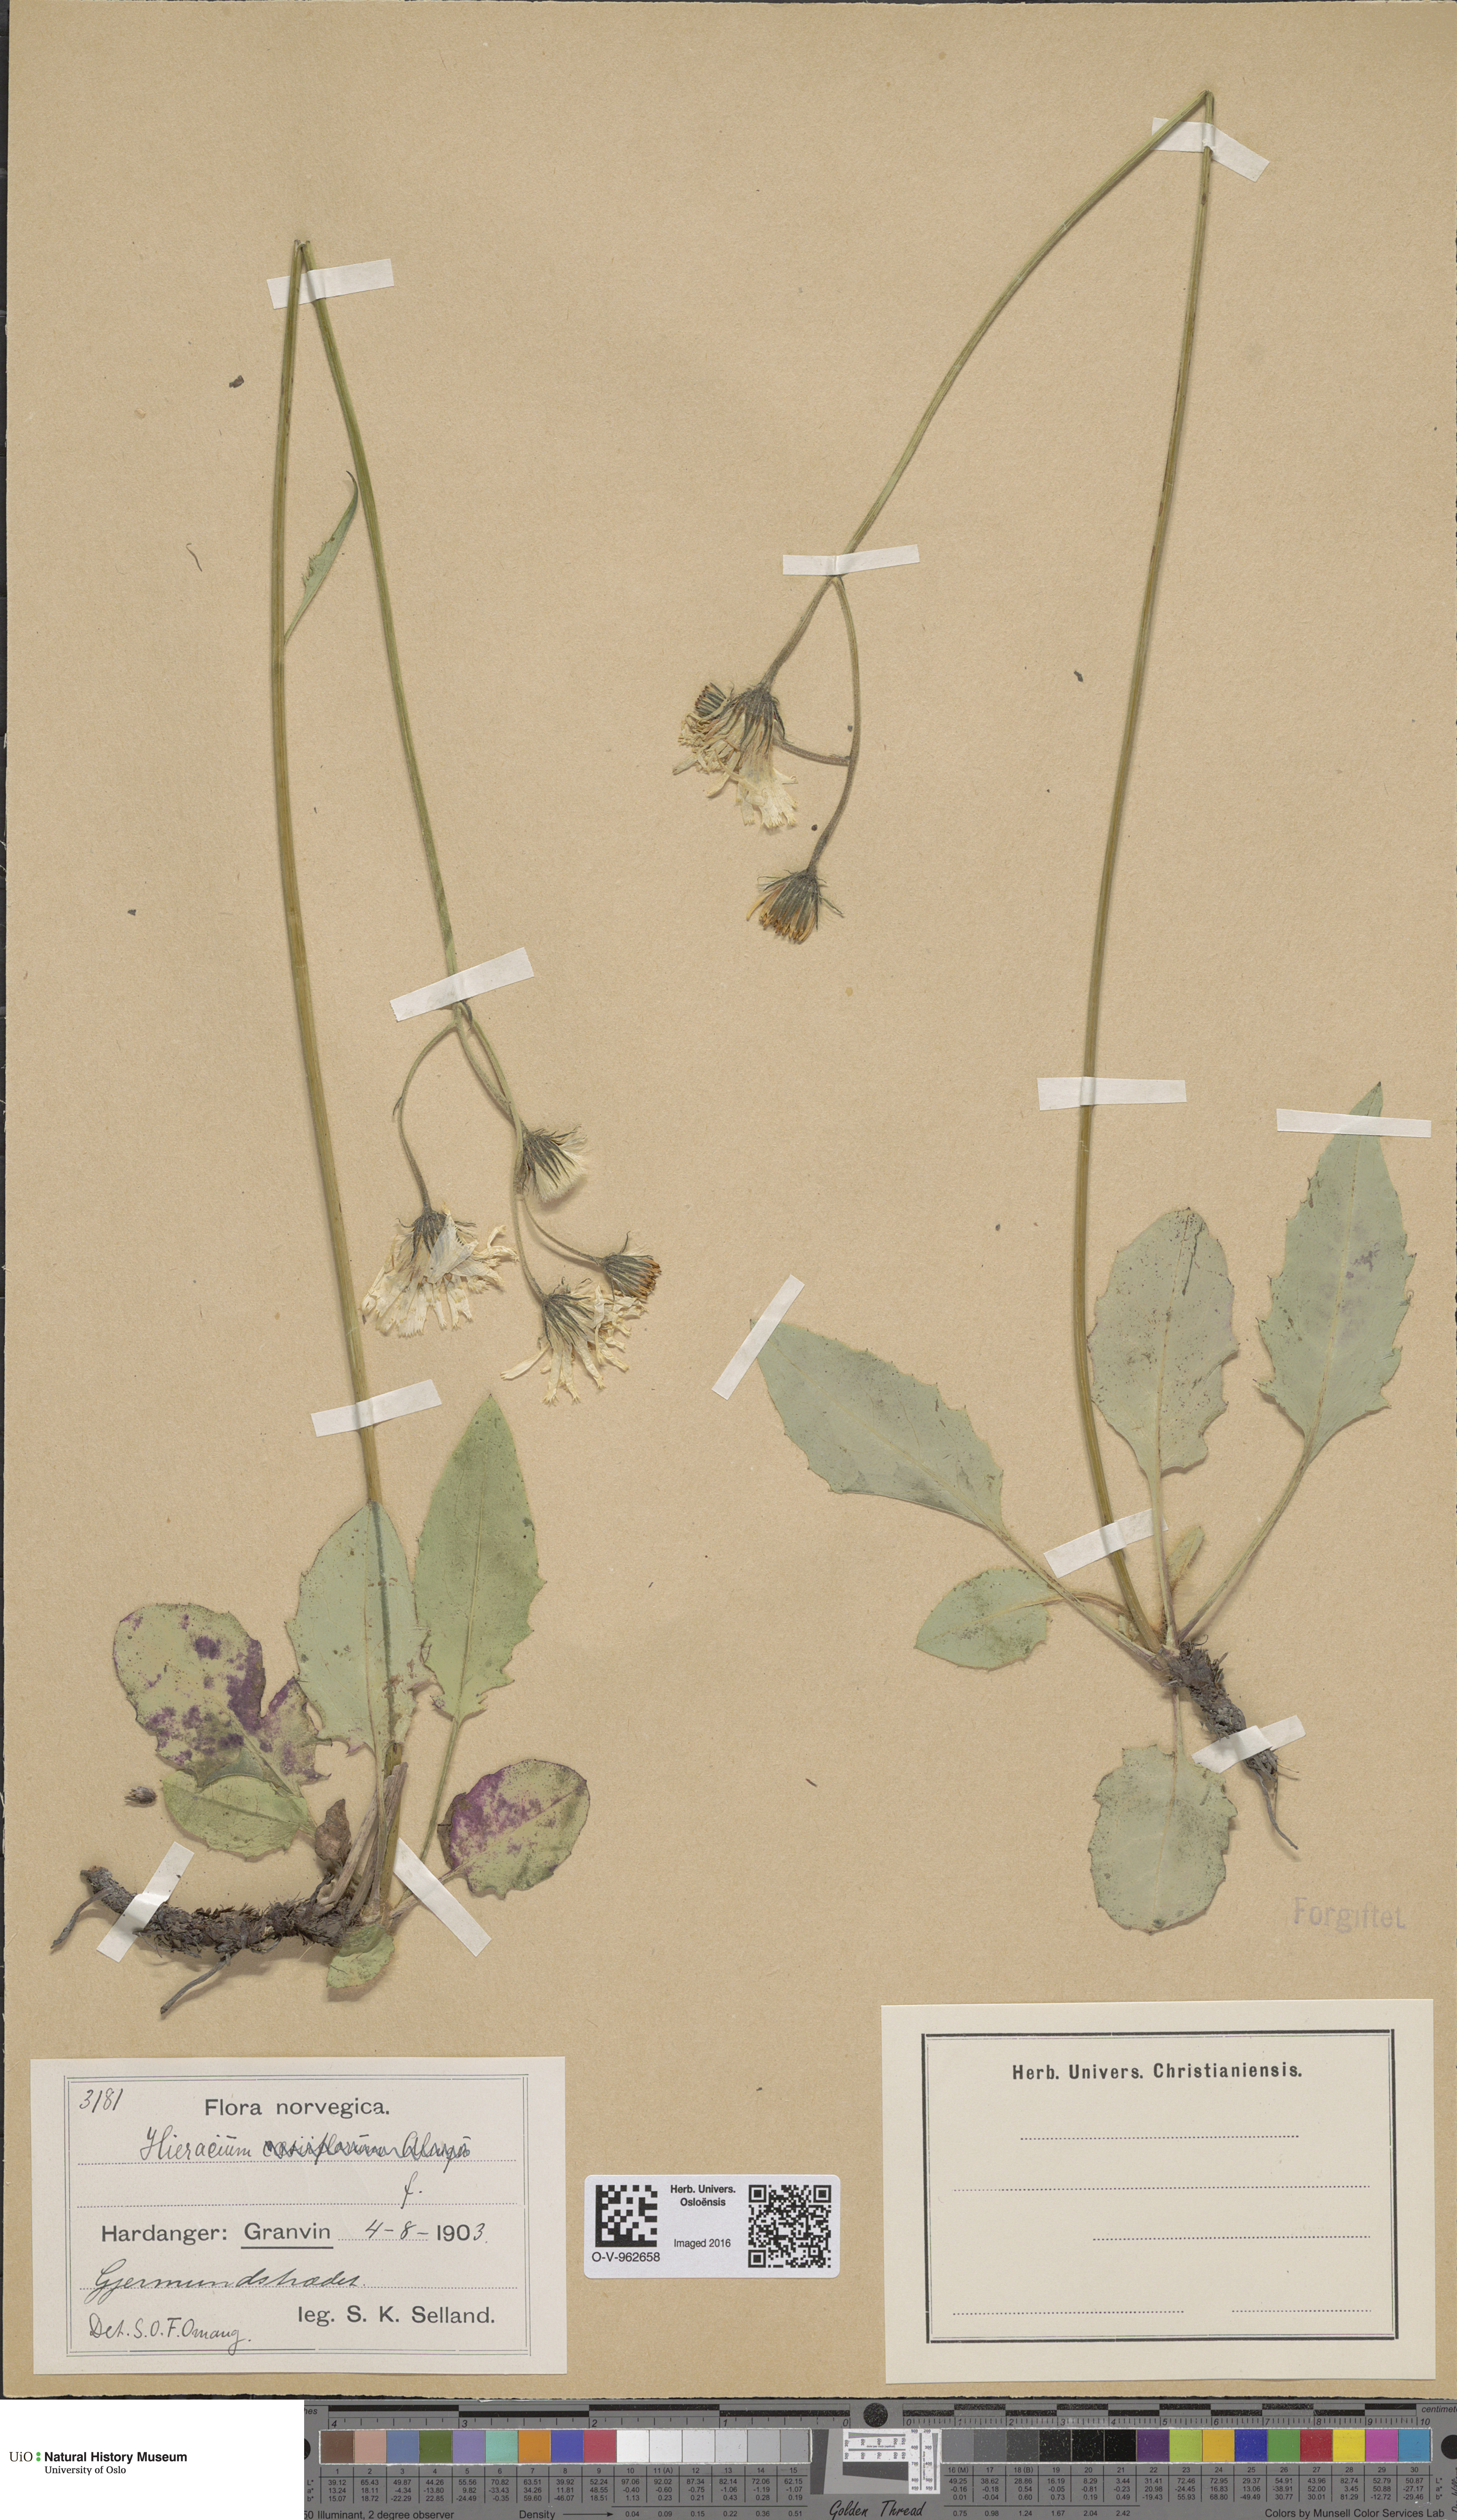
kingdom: Plantae
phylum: Tracheophyta
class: Magnoliopsida
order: Asterales
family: Asteraceae
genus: Hieracium
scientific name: Hieracium
